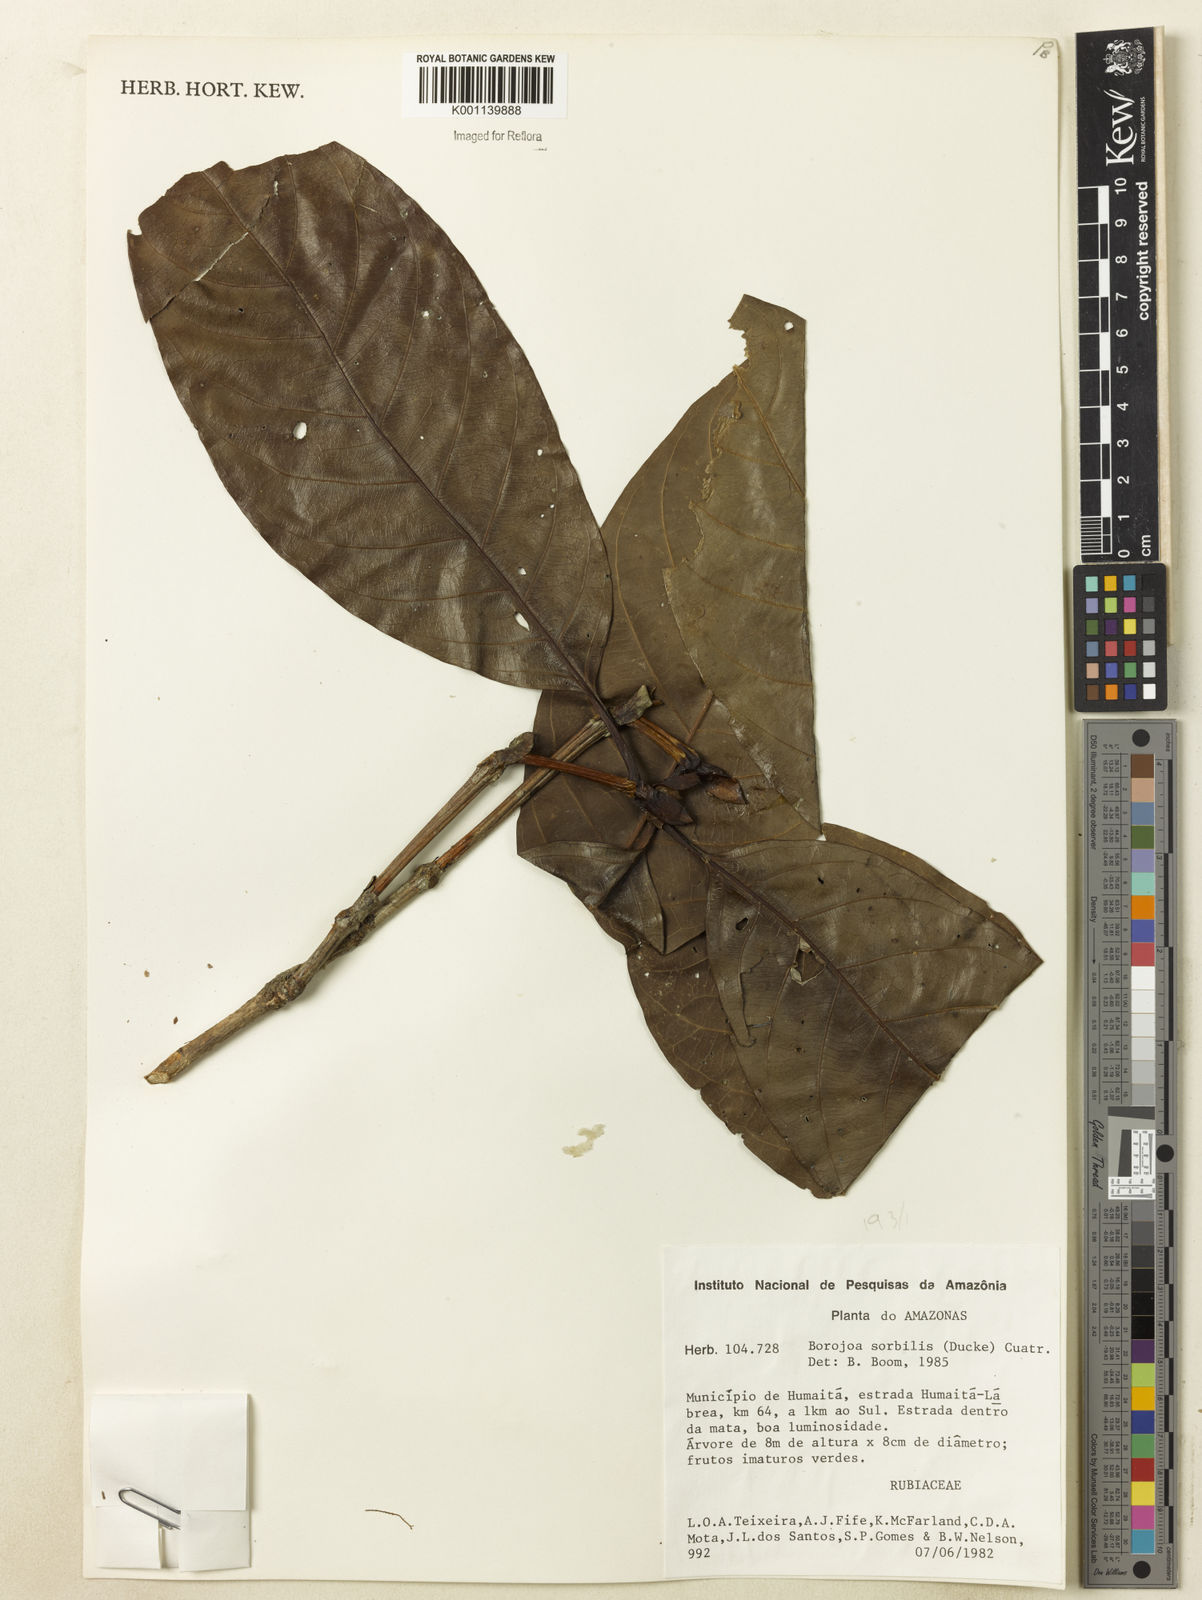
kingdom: Plantae
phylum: Tracheophyta
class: Magnoliopsida
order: Gentianales
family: Rubiaceae
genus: Alibertia
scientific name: Alibertia sorbilis
